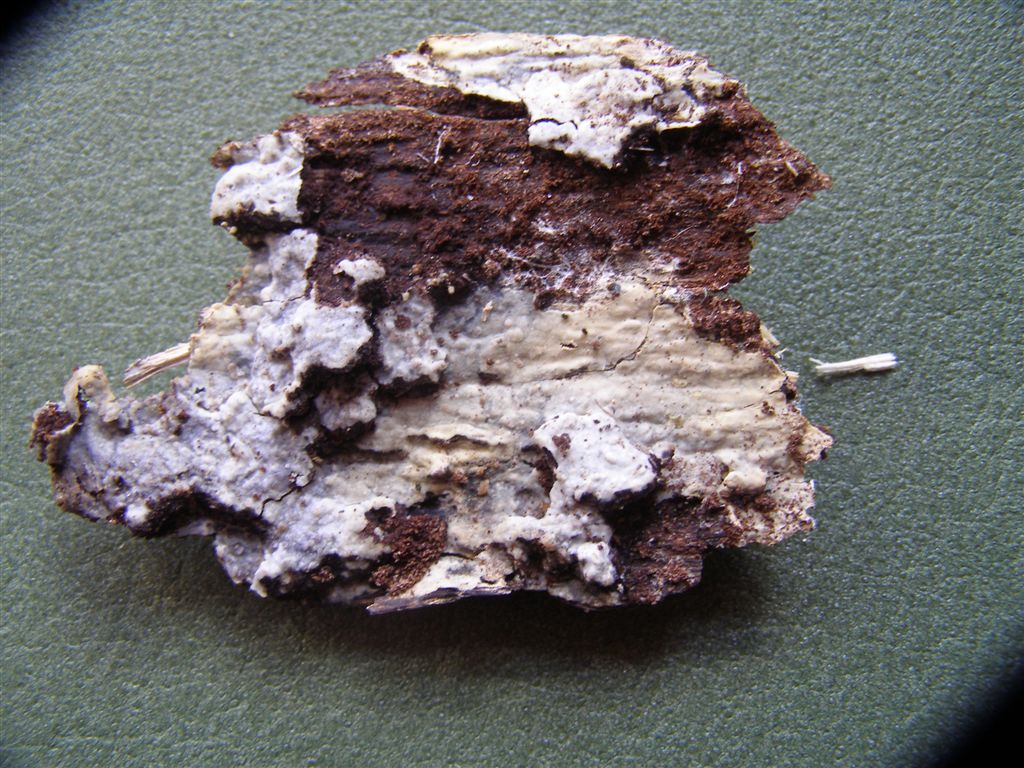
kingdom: Fungi
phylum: Basidiomycota
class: Agaricomycetes
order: Hymenochaetales
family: Rickenellaceae
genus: Peniophorella
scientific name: Peniophorella pubera
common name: dunet kalkskind
